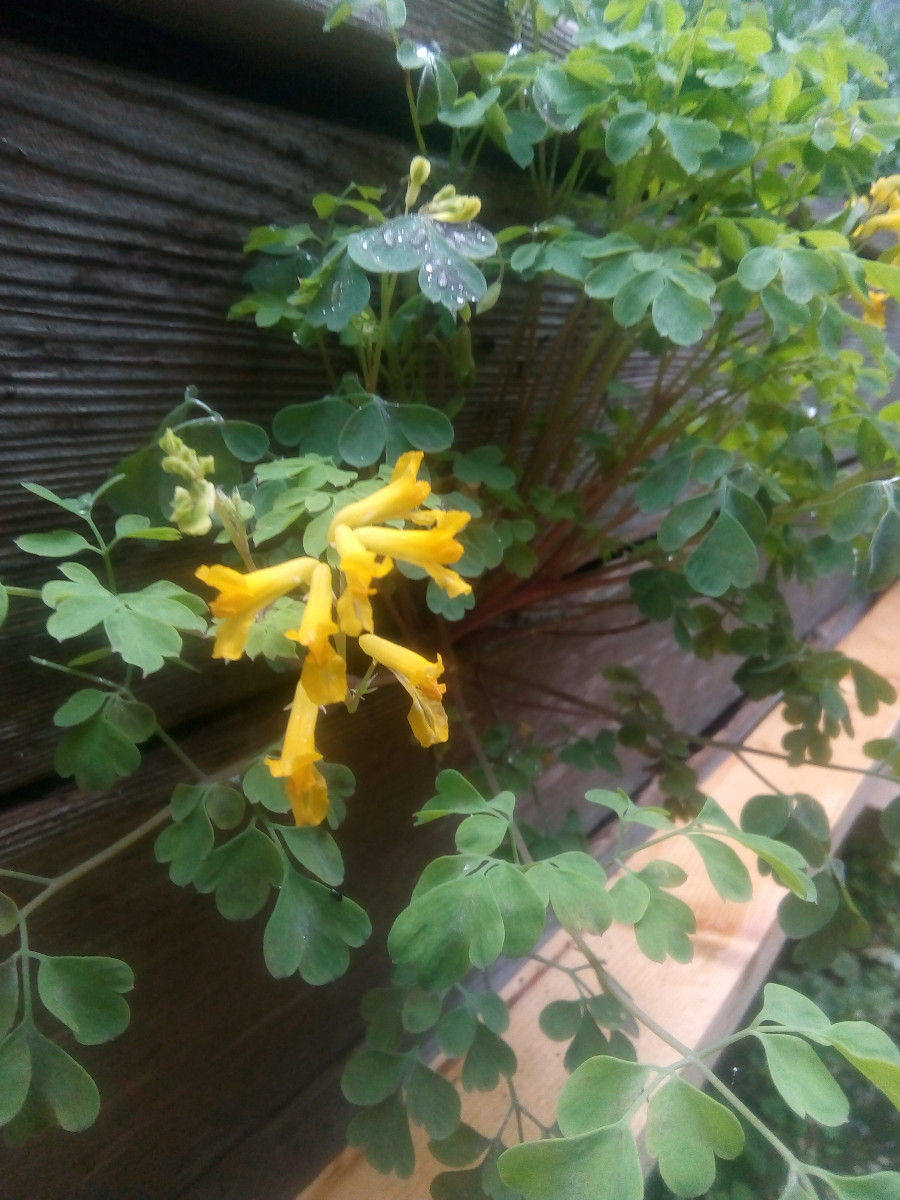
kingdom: Fungi
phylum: Ascomycota
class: Leotiomycetes
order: Helotiales
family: Erysiphaceae
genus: Erysiphe
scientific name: Erysiphe cruciferarum
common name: korsblomst-meldug
